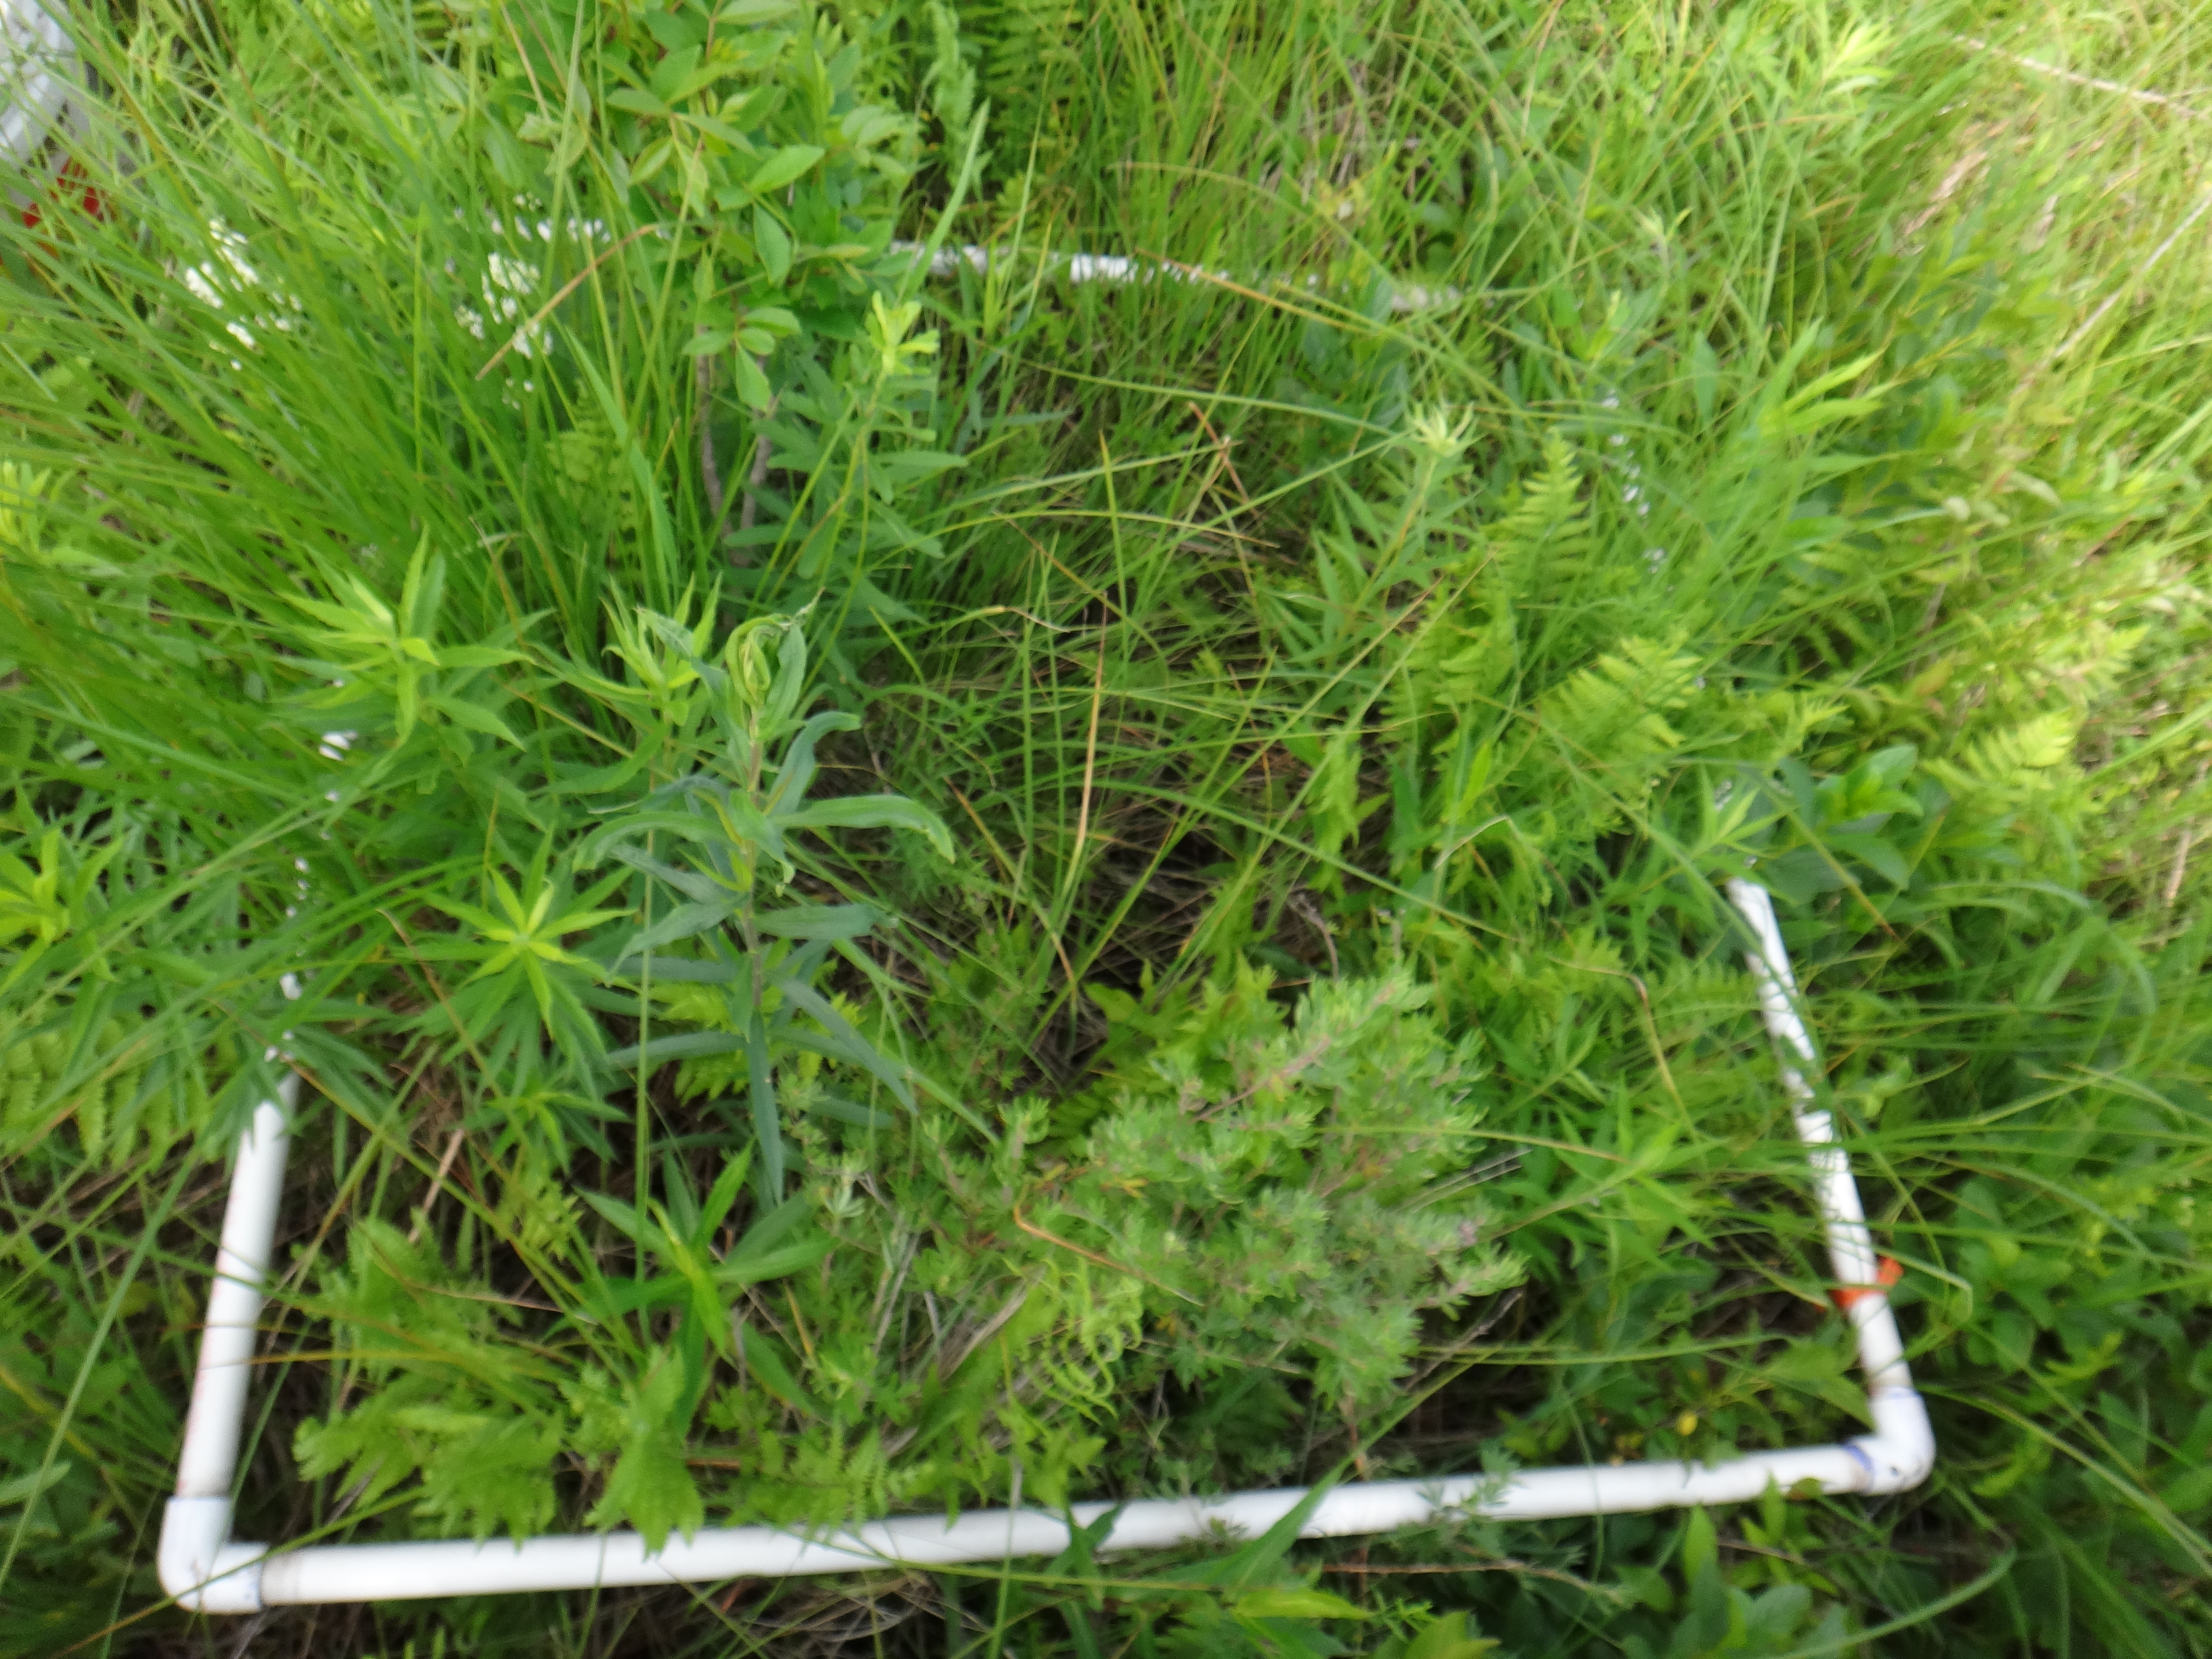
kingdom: Plantae
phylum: Tracheophyta
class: Magnoliopsida
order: Asterales
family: Asteraceae
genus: Eutrochium
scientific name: Eutrochium maculatum
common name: Spotted joe pye weed
